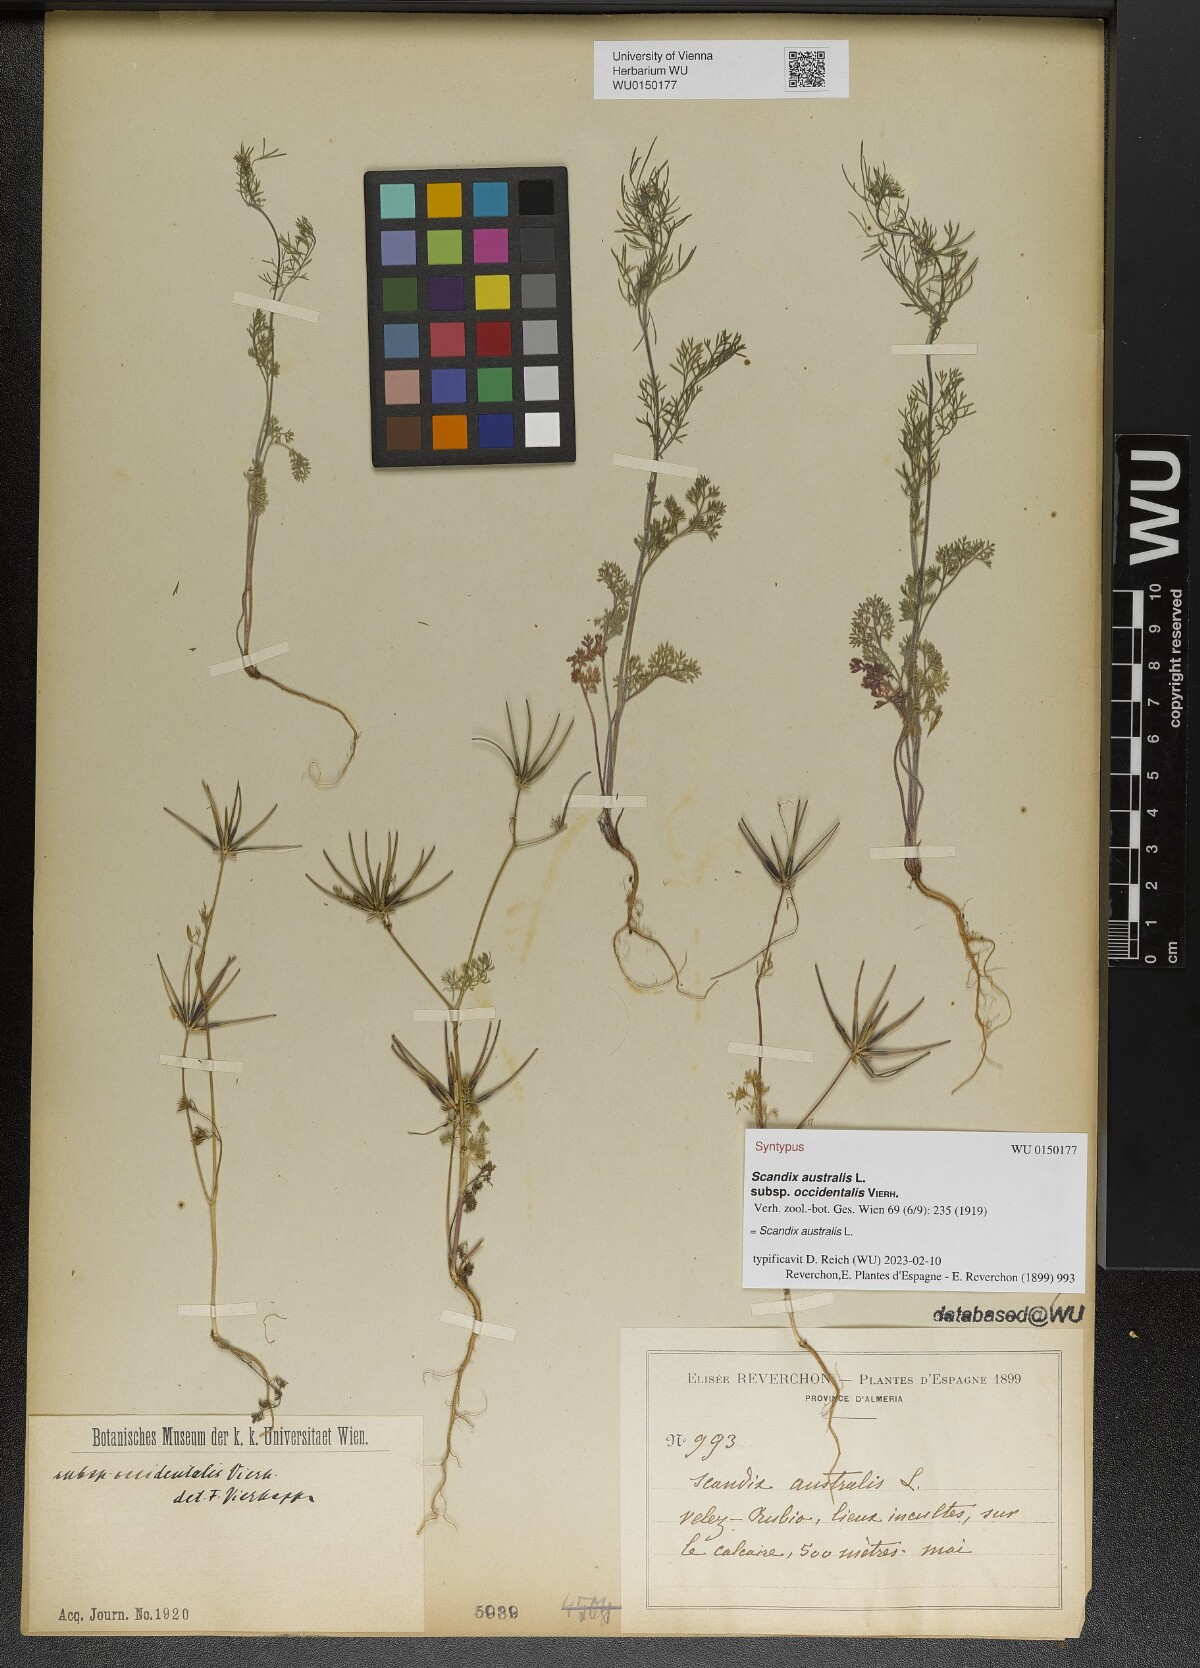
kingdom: Plantae
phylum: Tracheophyta
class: Magnoliopsida
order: Apiales
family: Apiaceae
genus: Scandix
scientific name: Scandix australis
